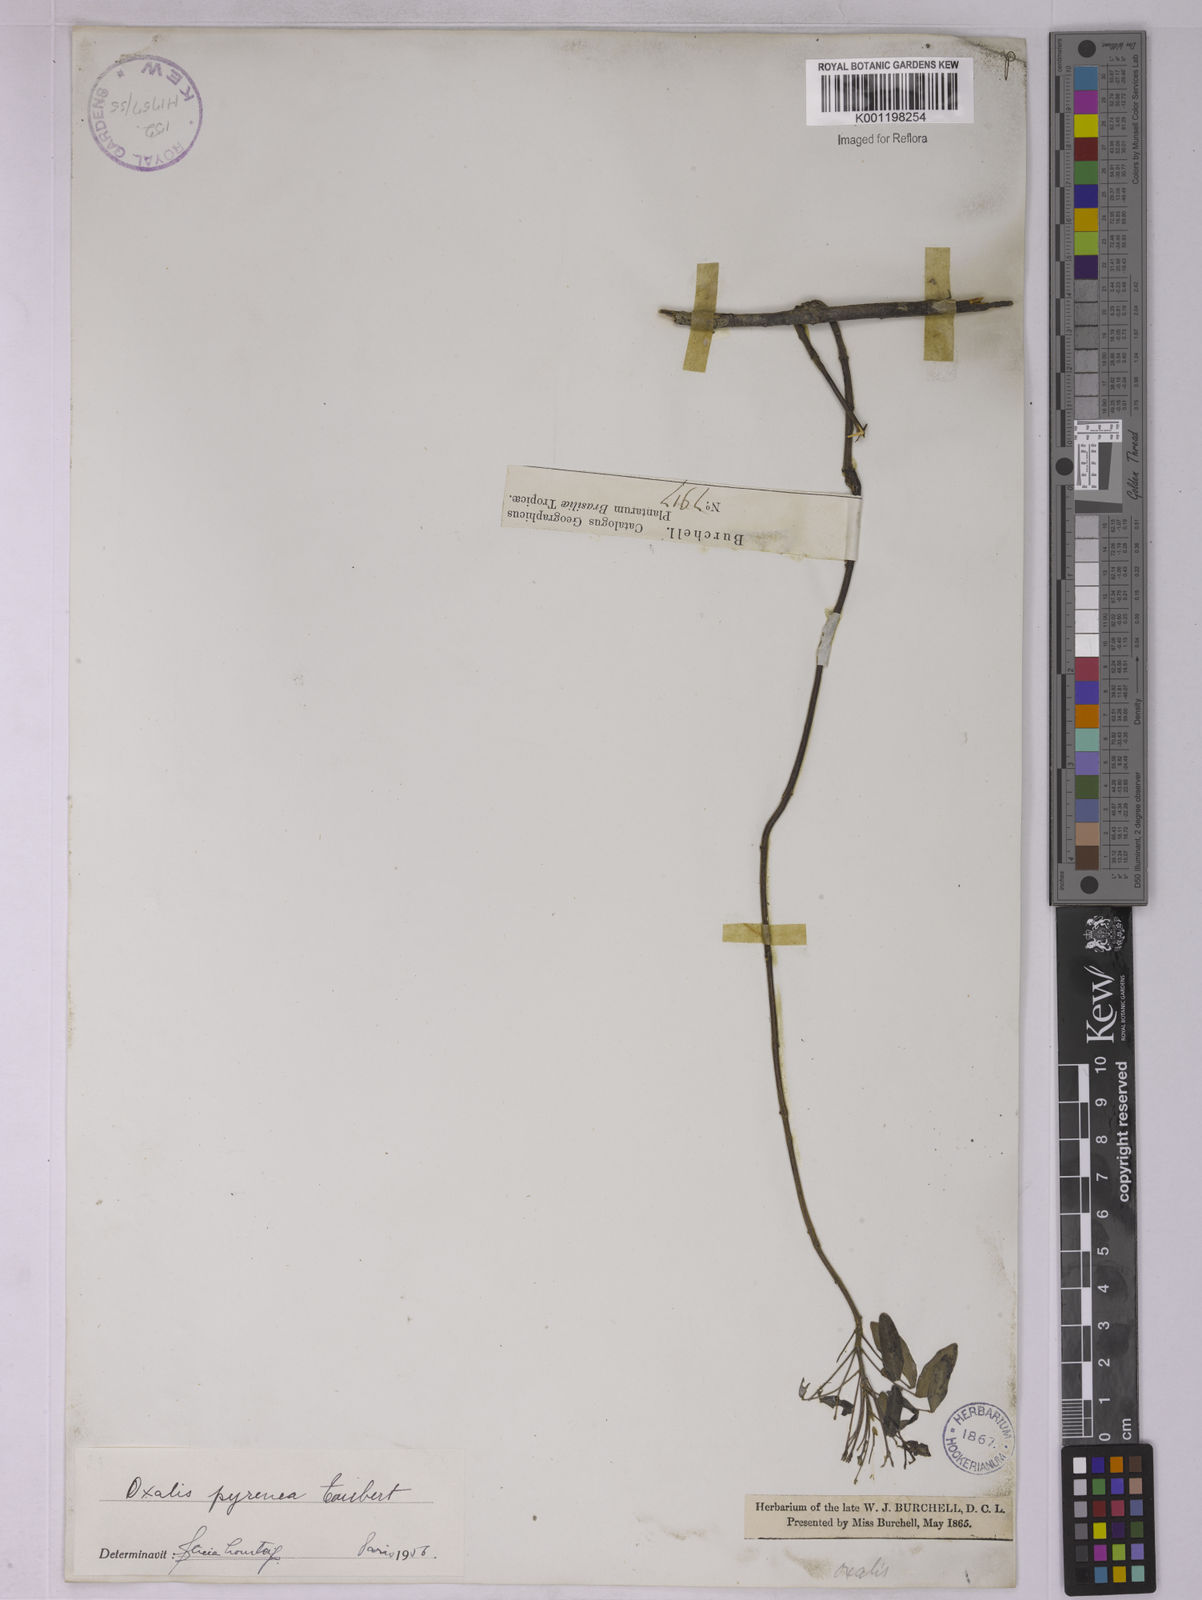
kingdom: Plantae
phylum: Tracheophyta
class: Magnoliopsida
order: Oxalidales
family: Oxalidaceae
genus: Oxalis
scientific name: Oxalis pyrenea
